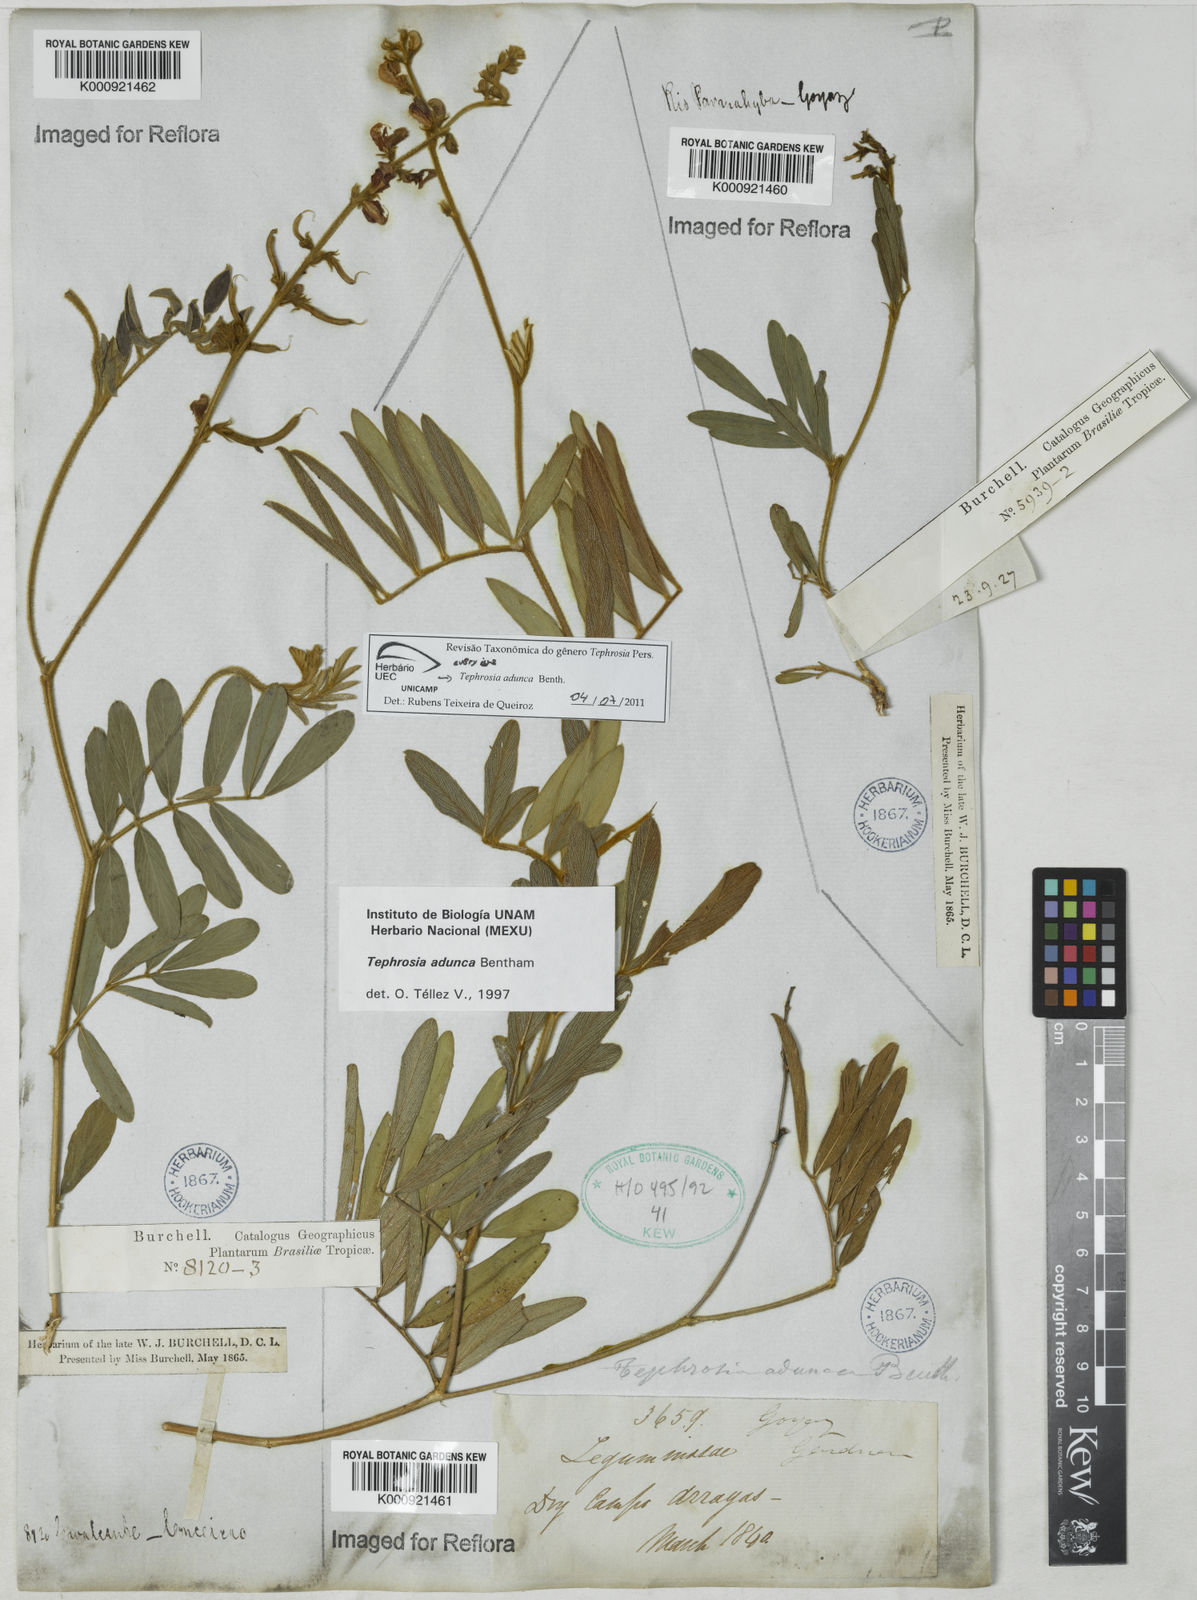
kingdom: Plantae
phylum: Tracheophyta
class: Magnoliopsida
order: Fabales
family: Fabaceae
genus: Tephrosia
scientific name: Tephrosia adunca
